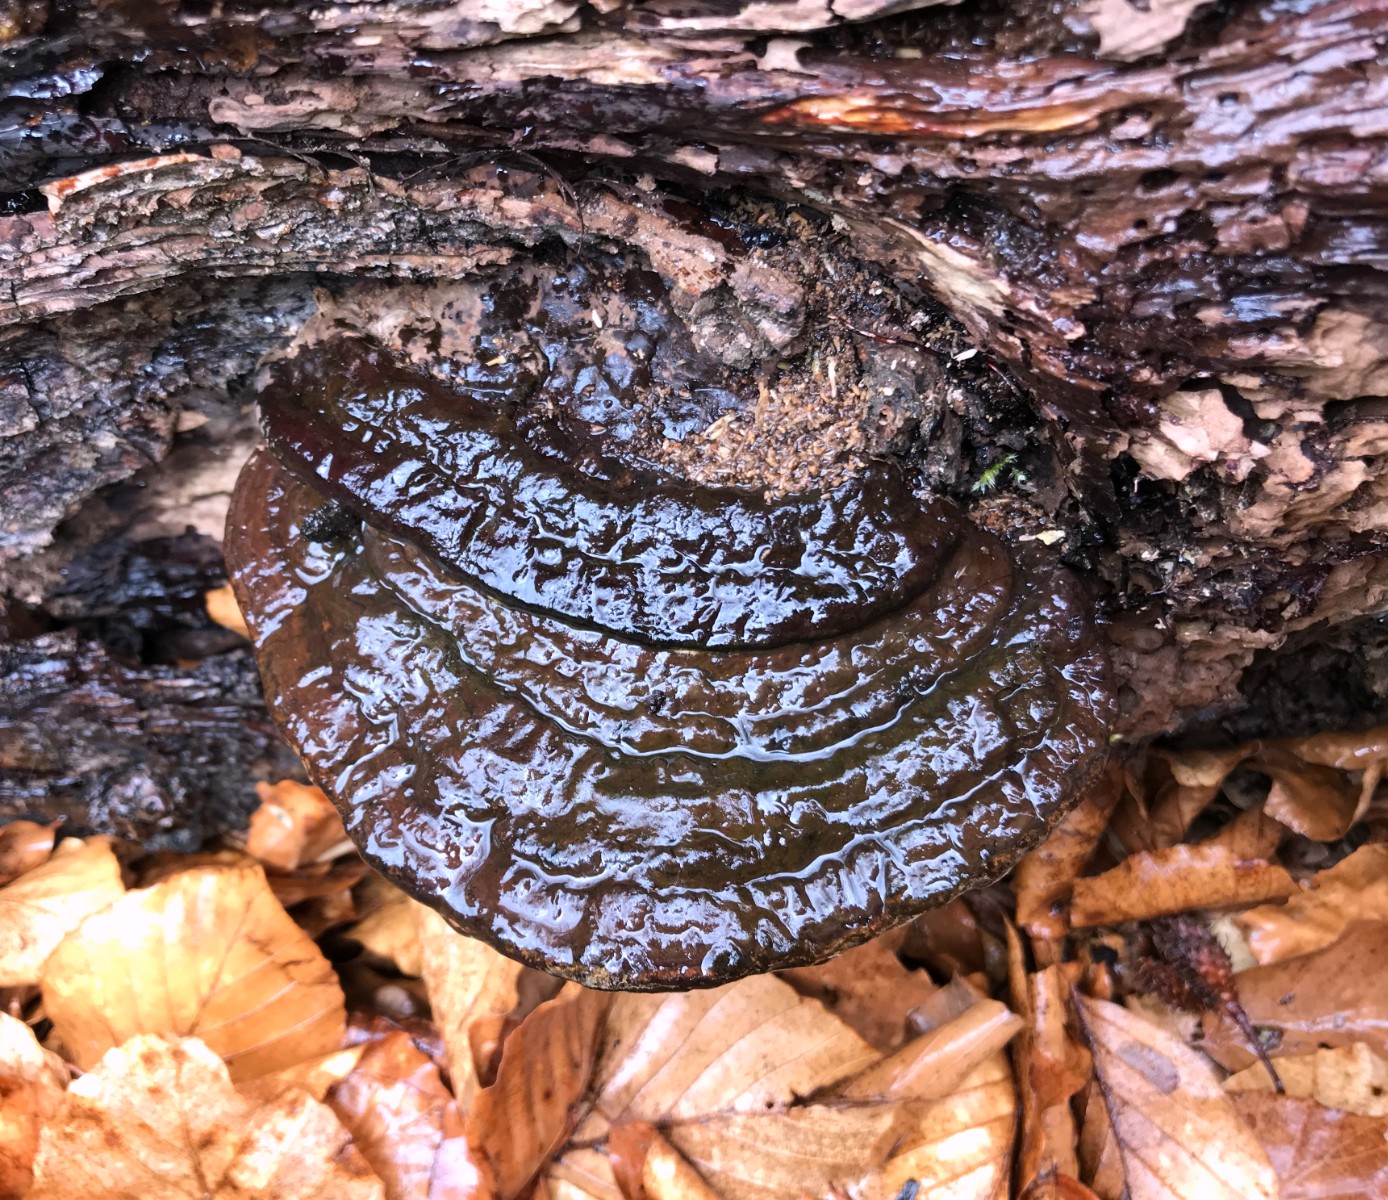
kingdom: Fungi
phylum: Basidiomycota
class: Agaricomycetes
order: Polyporales
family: Polyporaceae
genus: Ganoderma
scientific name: Ganoderma applanatum
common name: flad lakporesvamp
